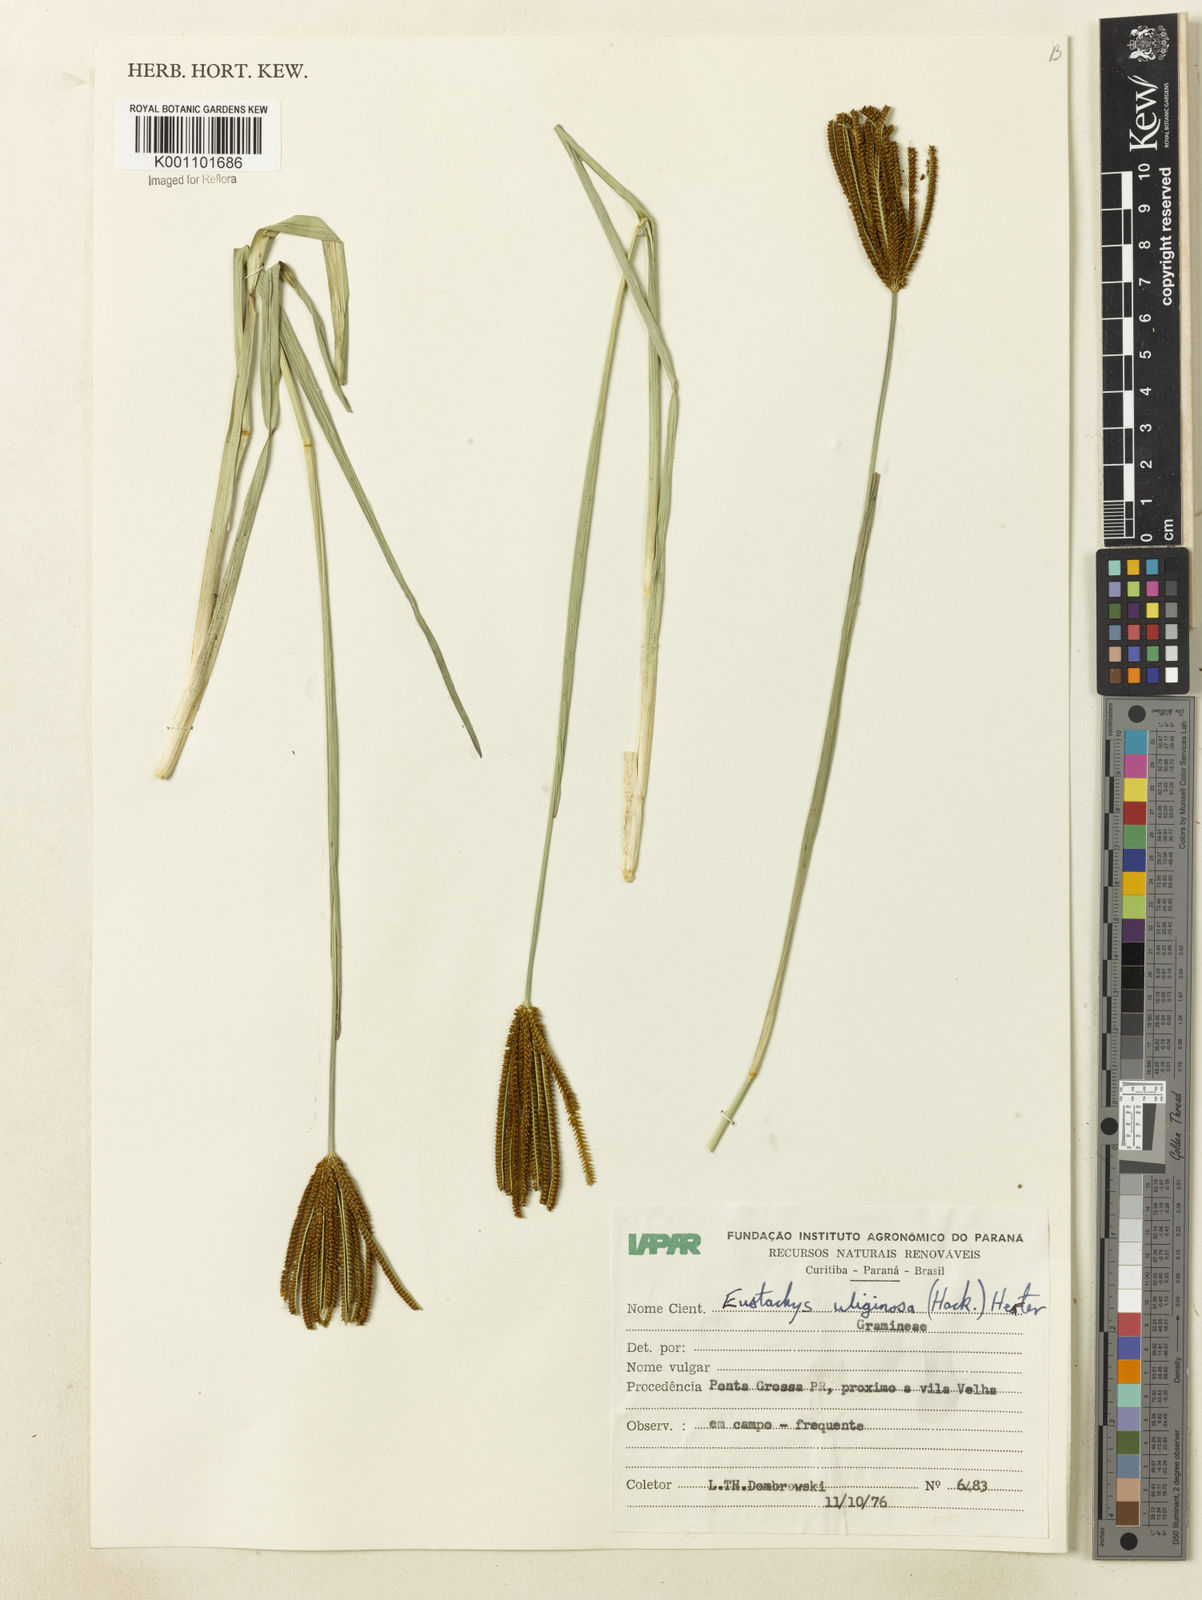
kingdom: Plantae
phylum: Tracheophyta
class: Liliopsida
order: Poales
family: Poaceae
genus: Eustachys
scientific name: Eustachys uliginosa
